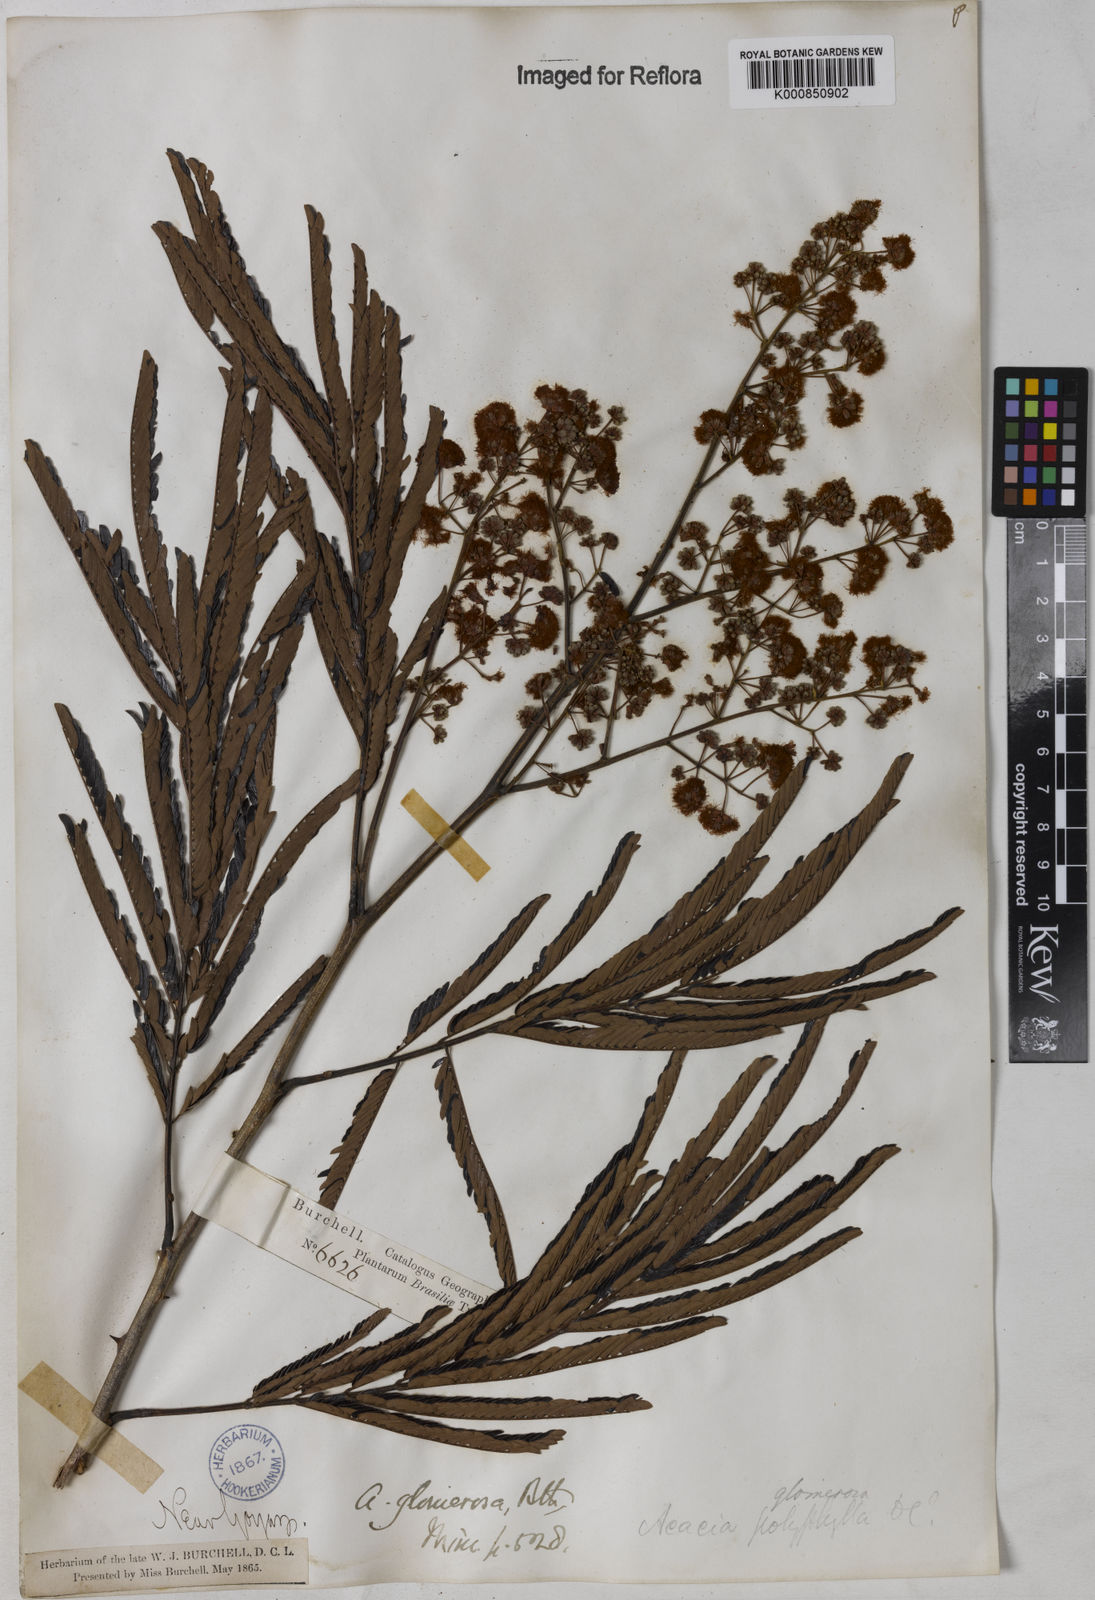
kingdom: Plantae
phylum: Tracheophyta
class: Magnoliopsida
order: Fabales
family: Fabaceae
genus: Senegalia
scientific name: Senegalia polyphylla
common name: White-tamarind
